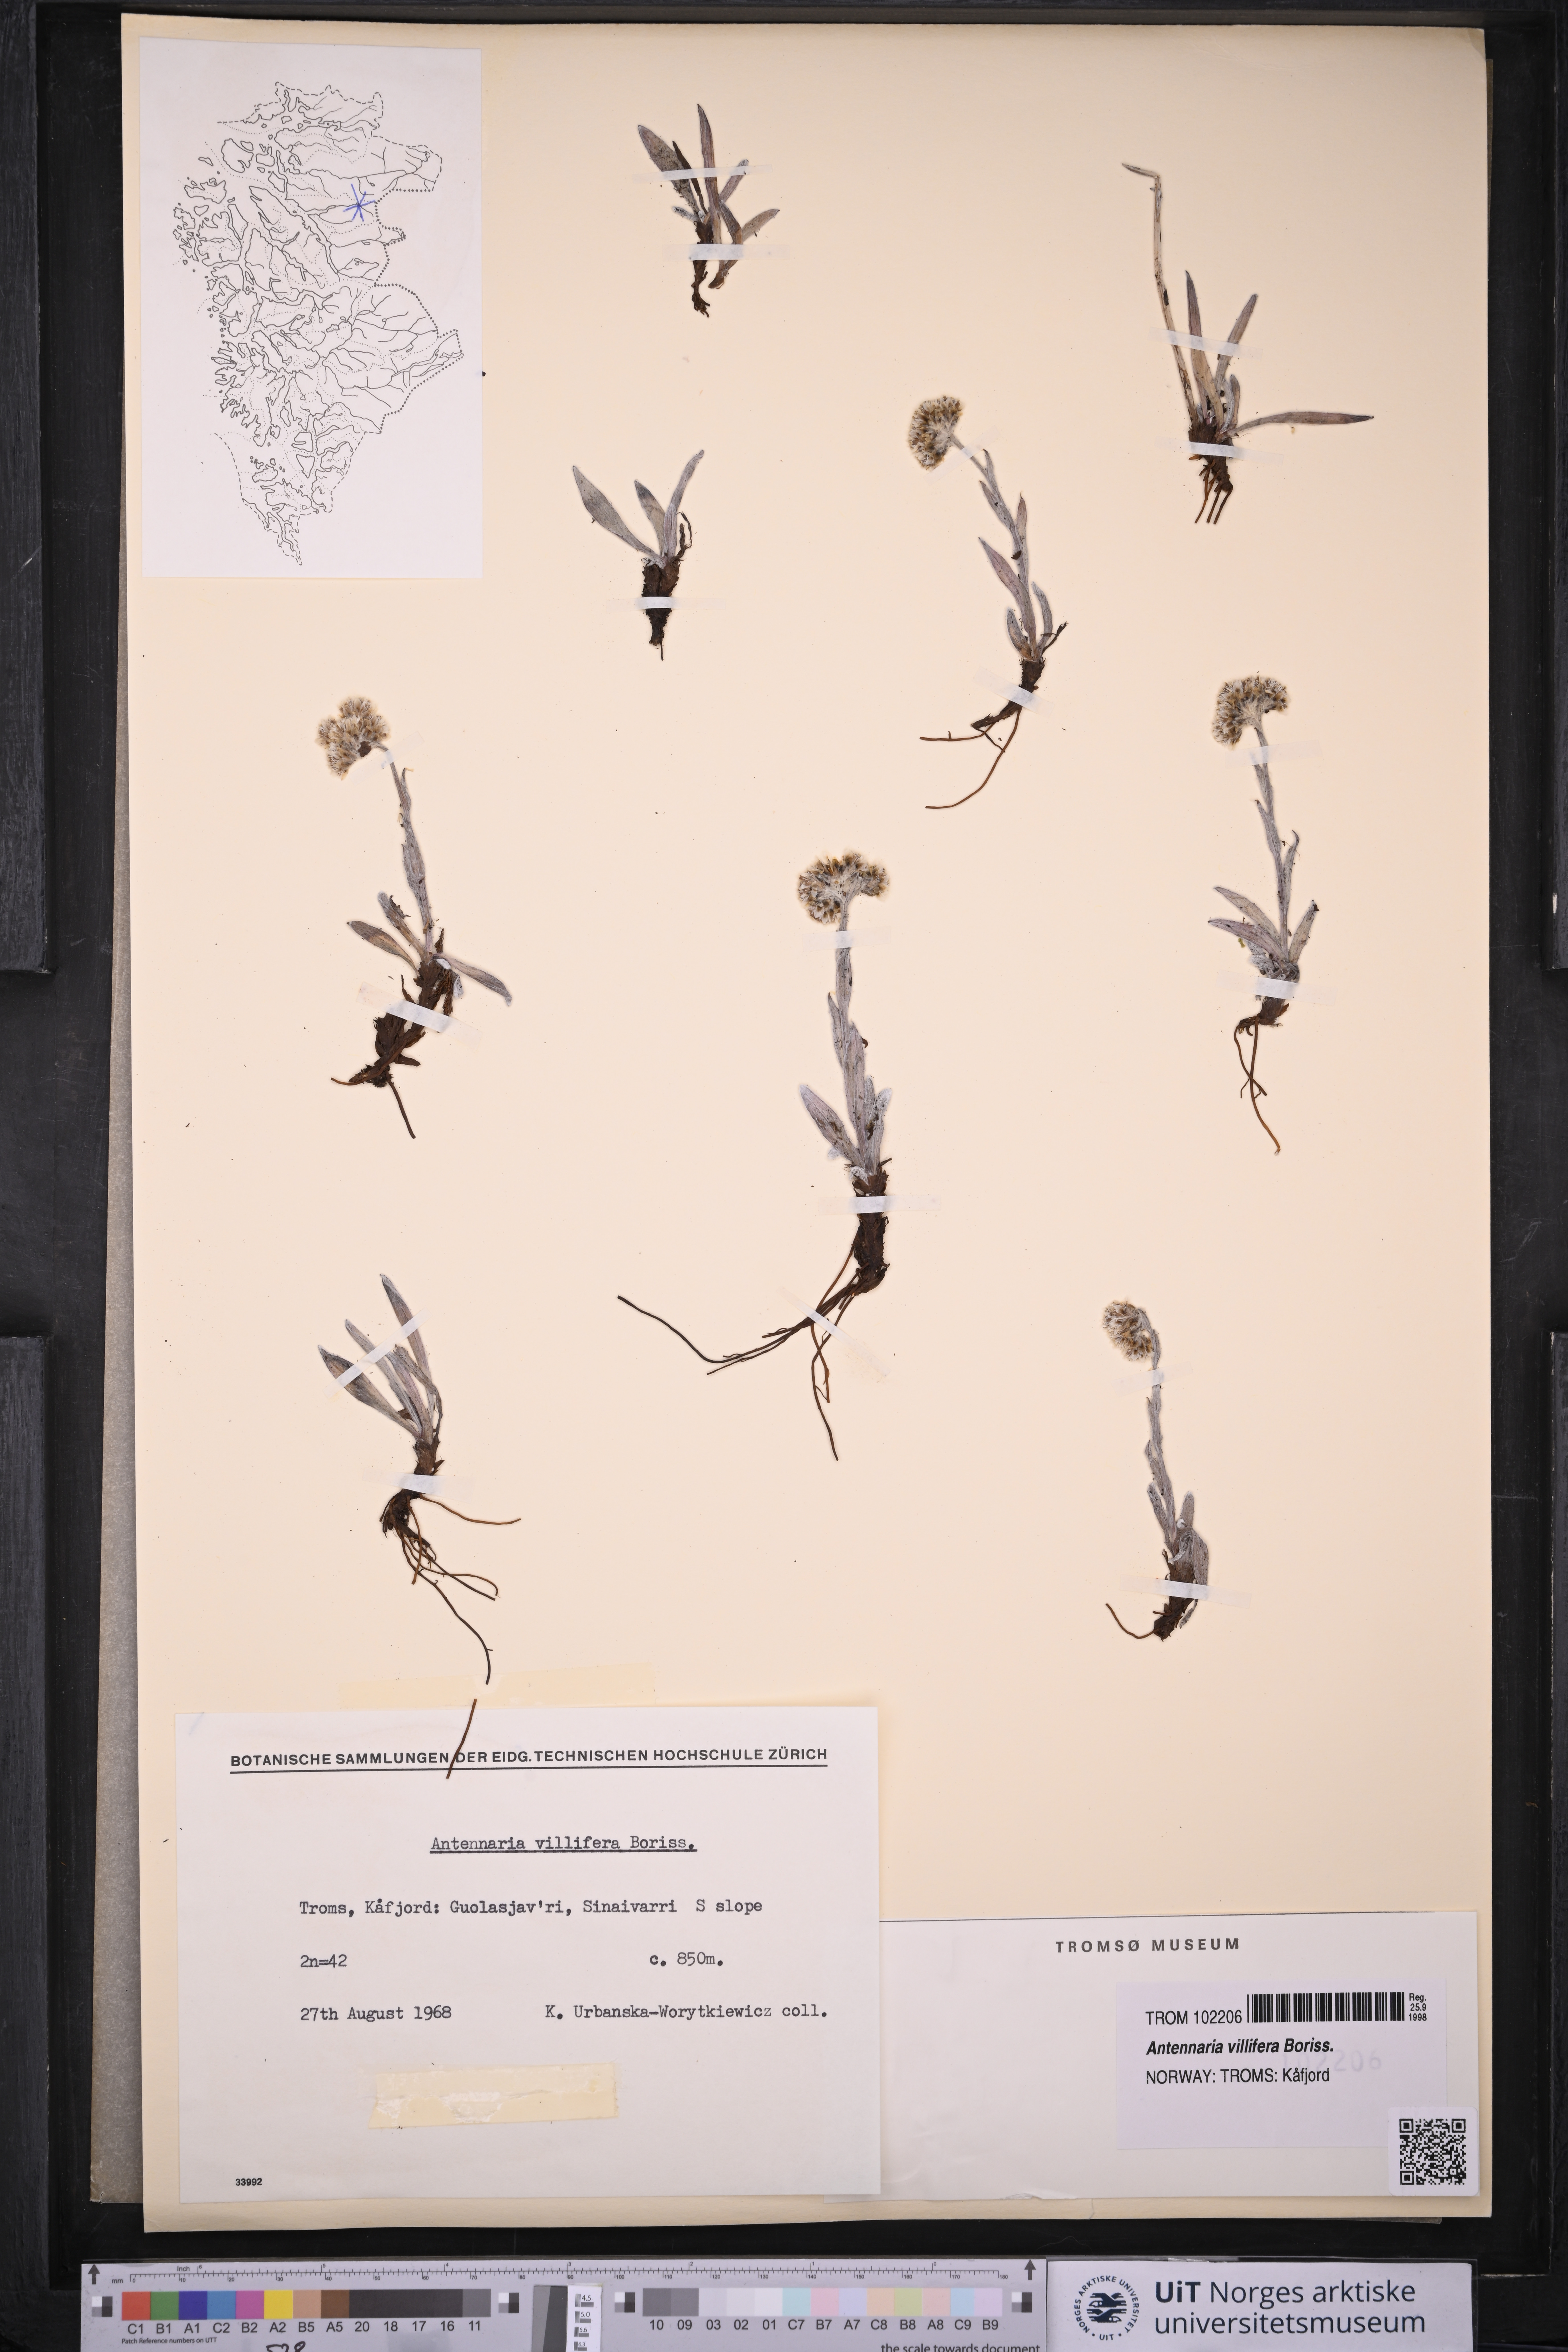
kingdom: Plantae
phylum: Tracheophyta
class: Magnoliopsida
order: Asterales
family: Asteraceae
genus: Antennaria
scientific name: Antennaria lanata
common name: Woolly pussytoes
